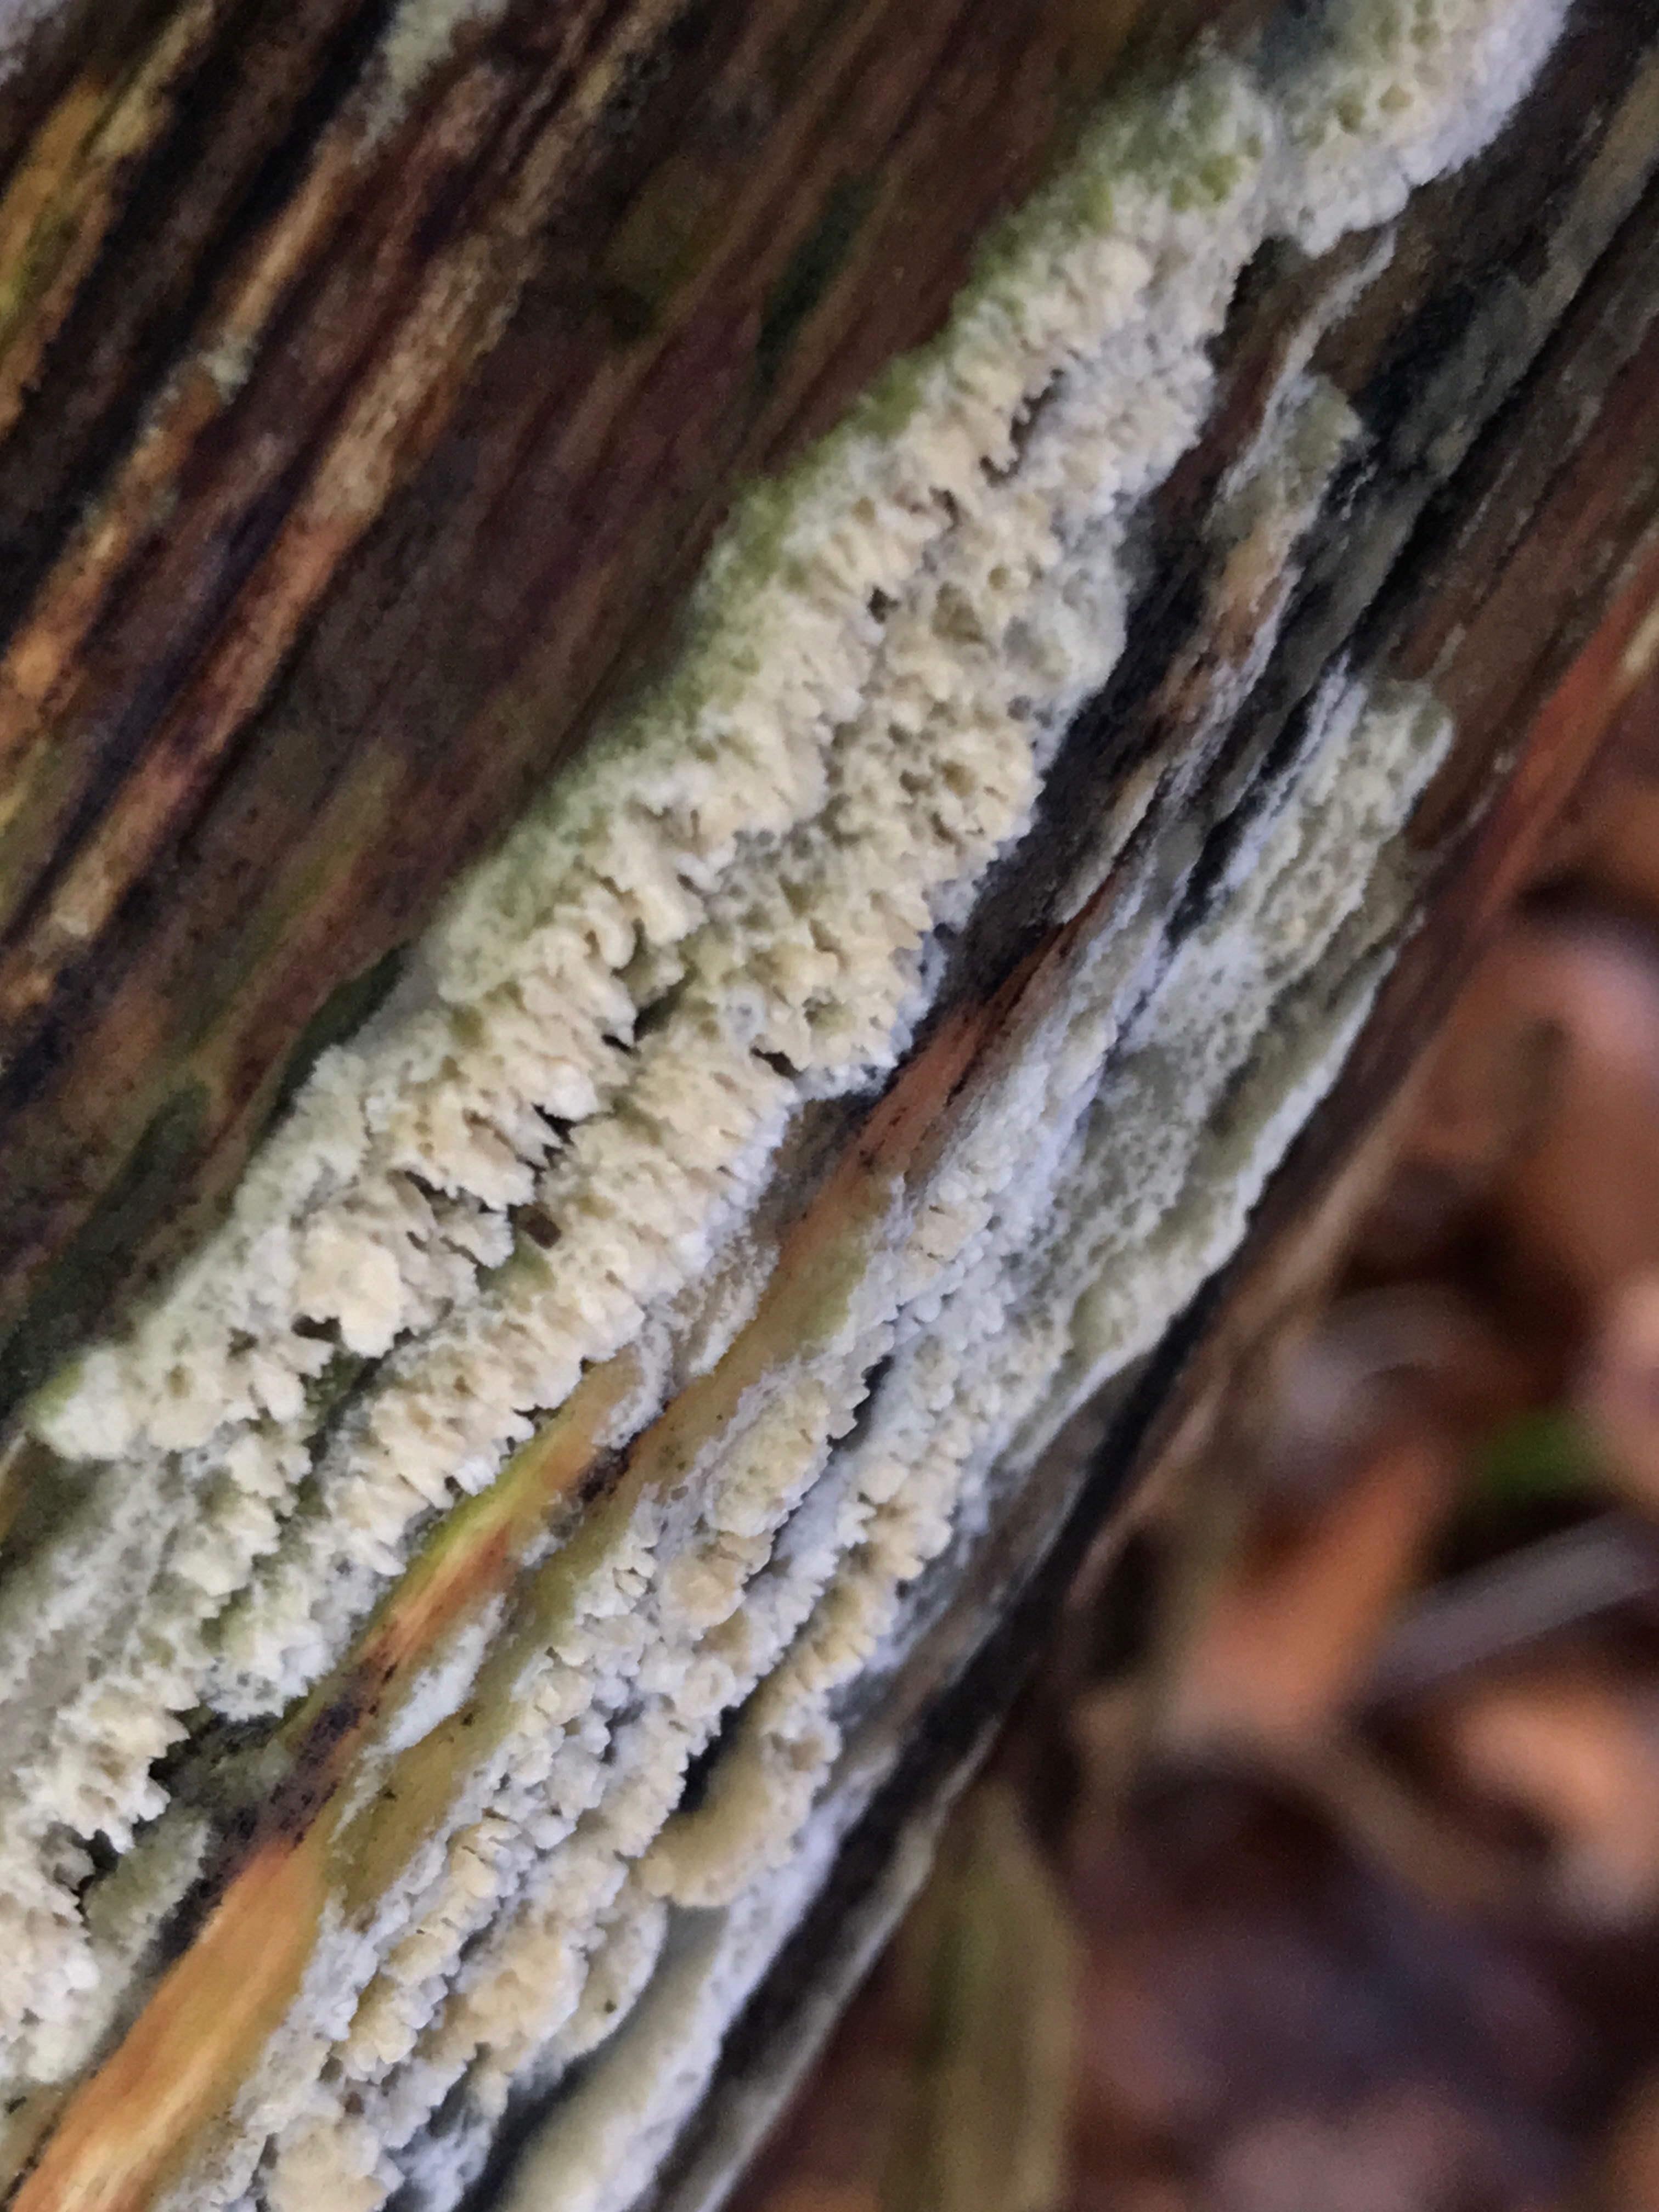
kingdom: Fungi
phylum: Basidiomycota
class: Agaricomycetes
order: Hymenochaetales
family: Schizoporaceae
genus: Schizopora
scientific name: Schizopora paradoxa
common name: hvid tandsvamp
